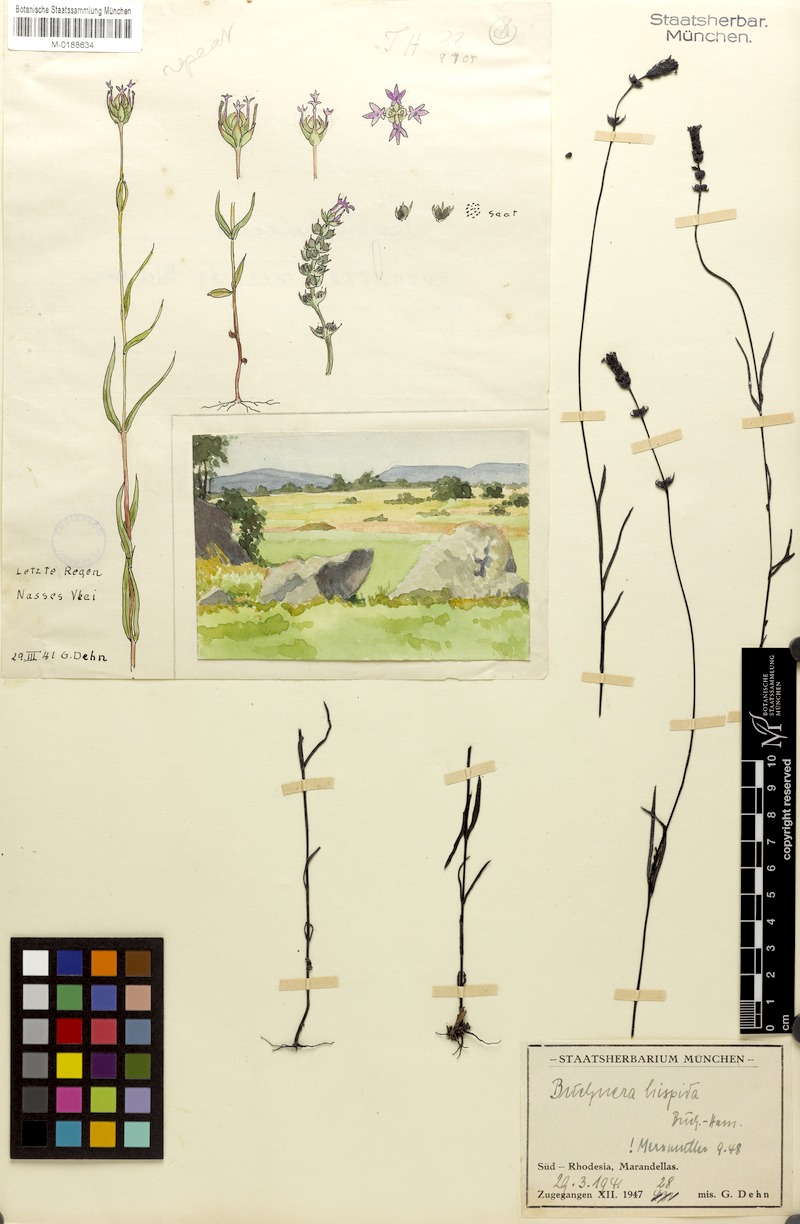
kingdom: Plantae
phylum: Tracheophyta
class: Magnoliopsida
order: Lamiales
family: Orobanchaceae
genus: Buchnera
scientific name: Buchnera hispida
